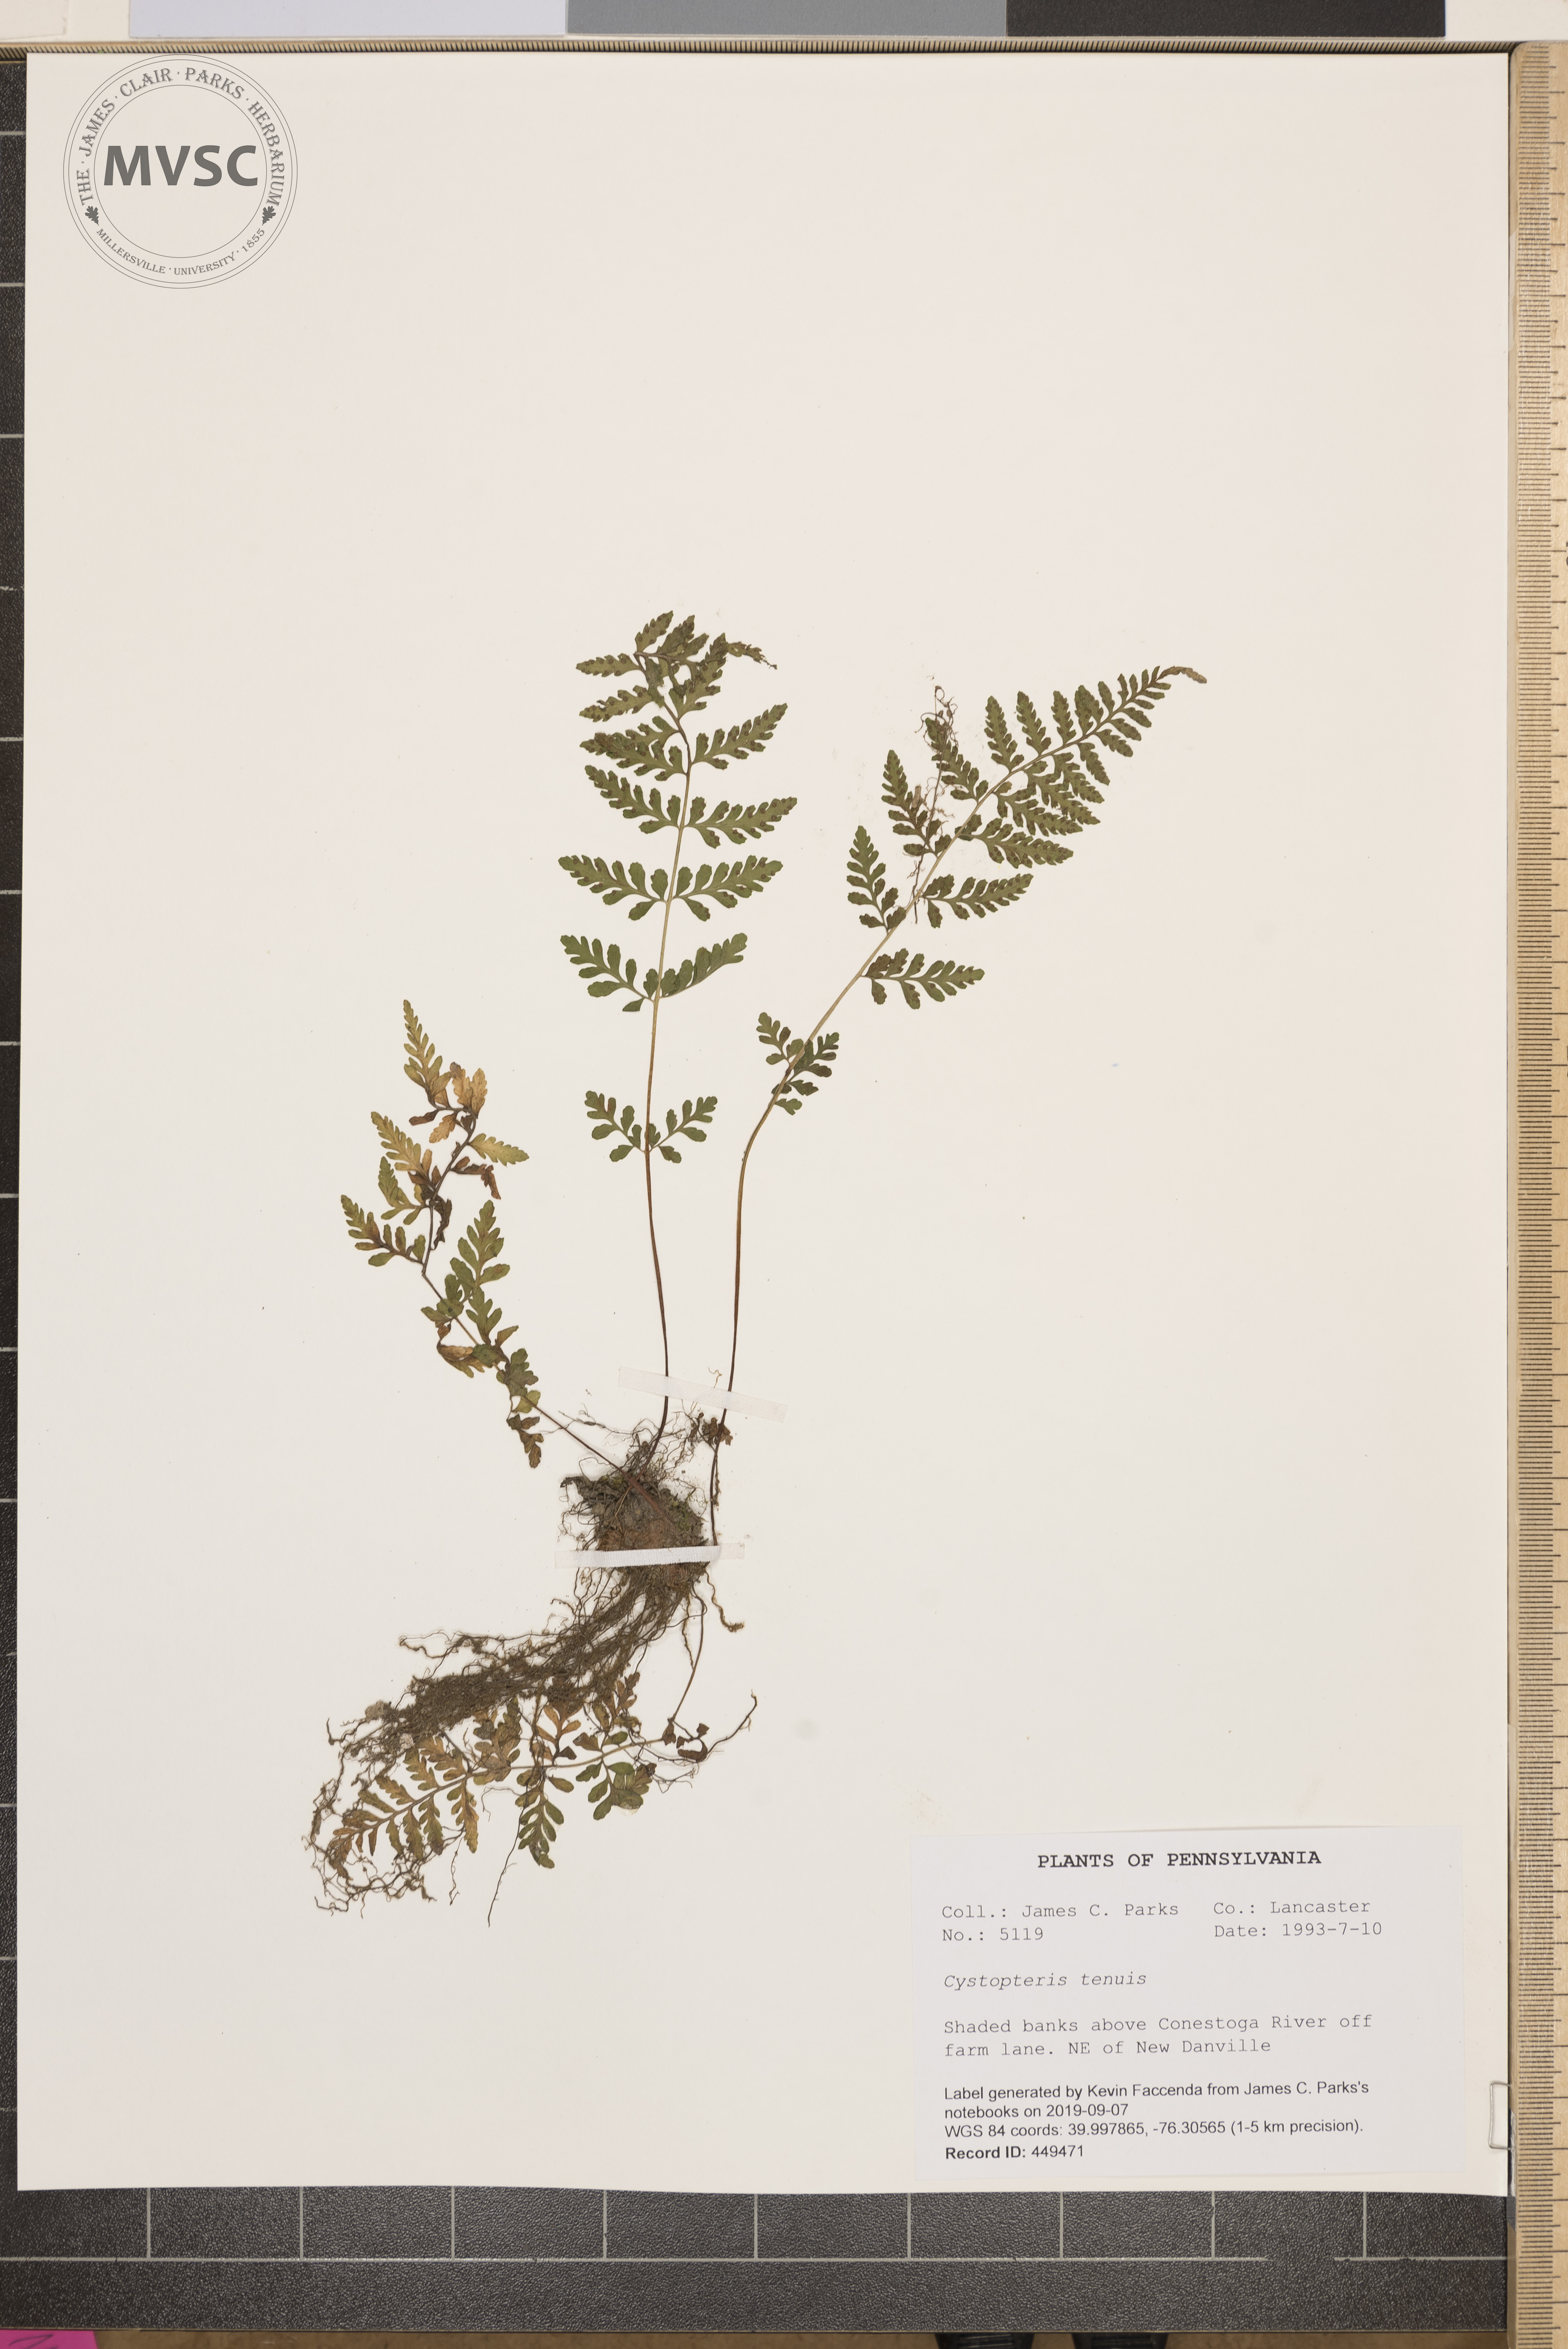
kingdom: Plantae
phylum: Tracheophyta
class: Polypodiopsida
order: Polypodiales
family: Cystopteridaceae
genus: Cystopteris
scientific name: Cystopteris tenuis
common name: Mackay's brittle fern
